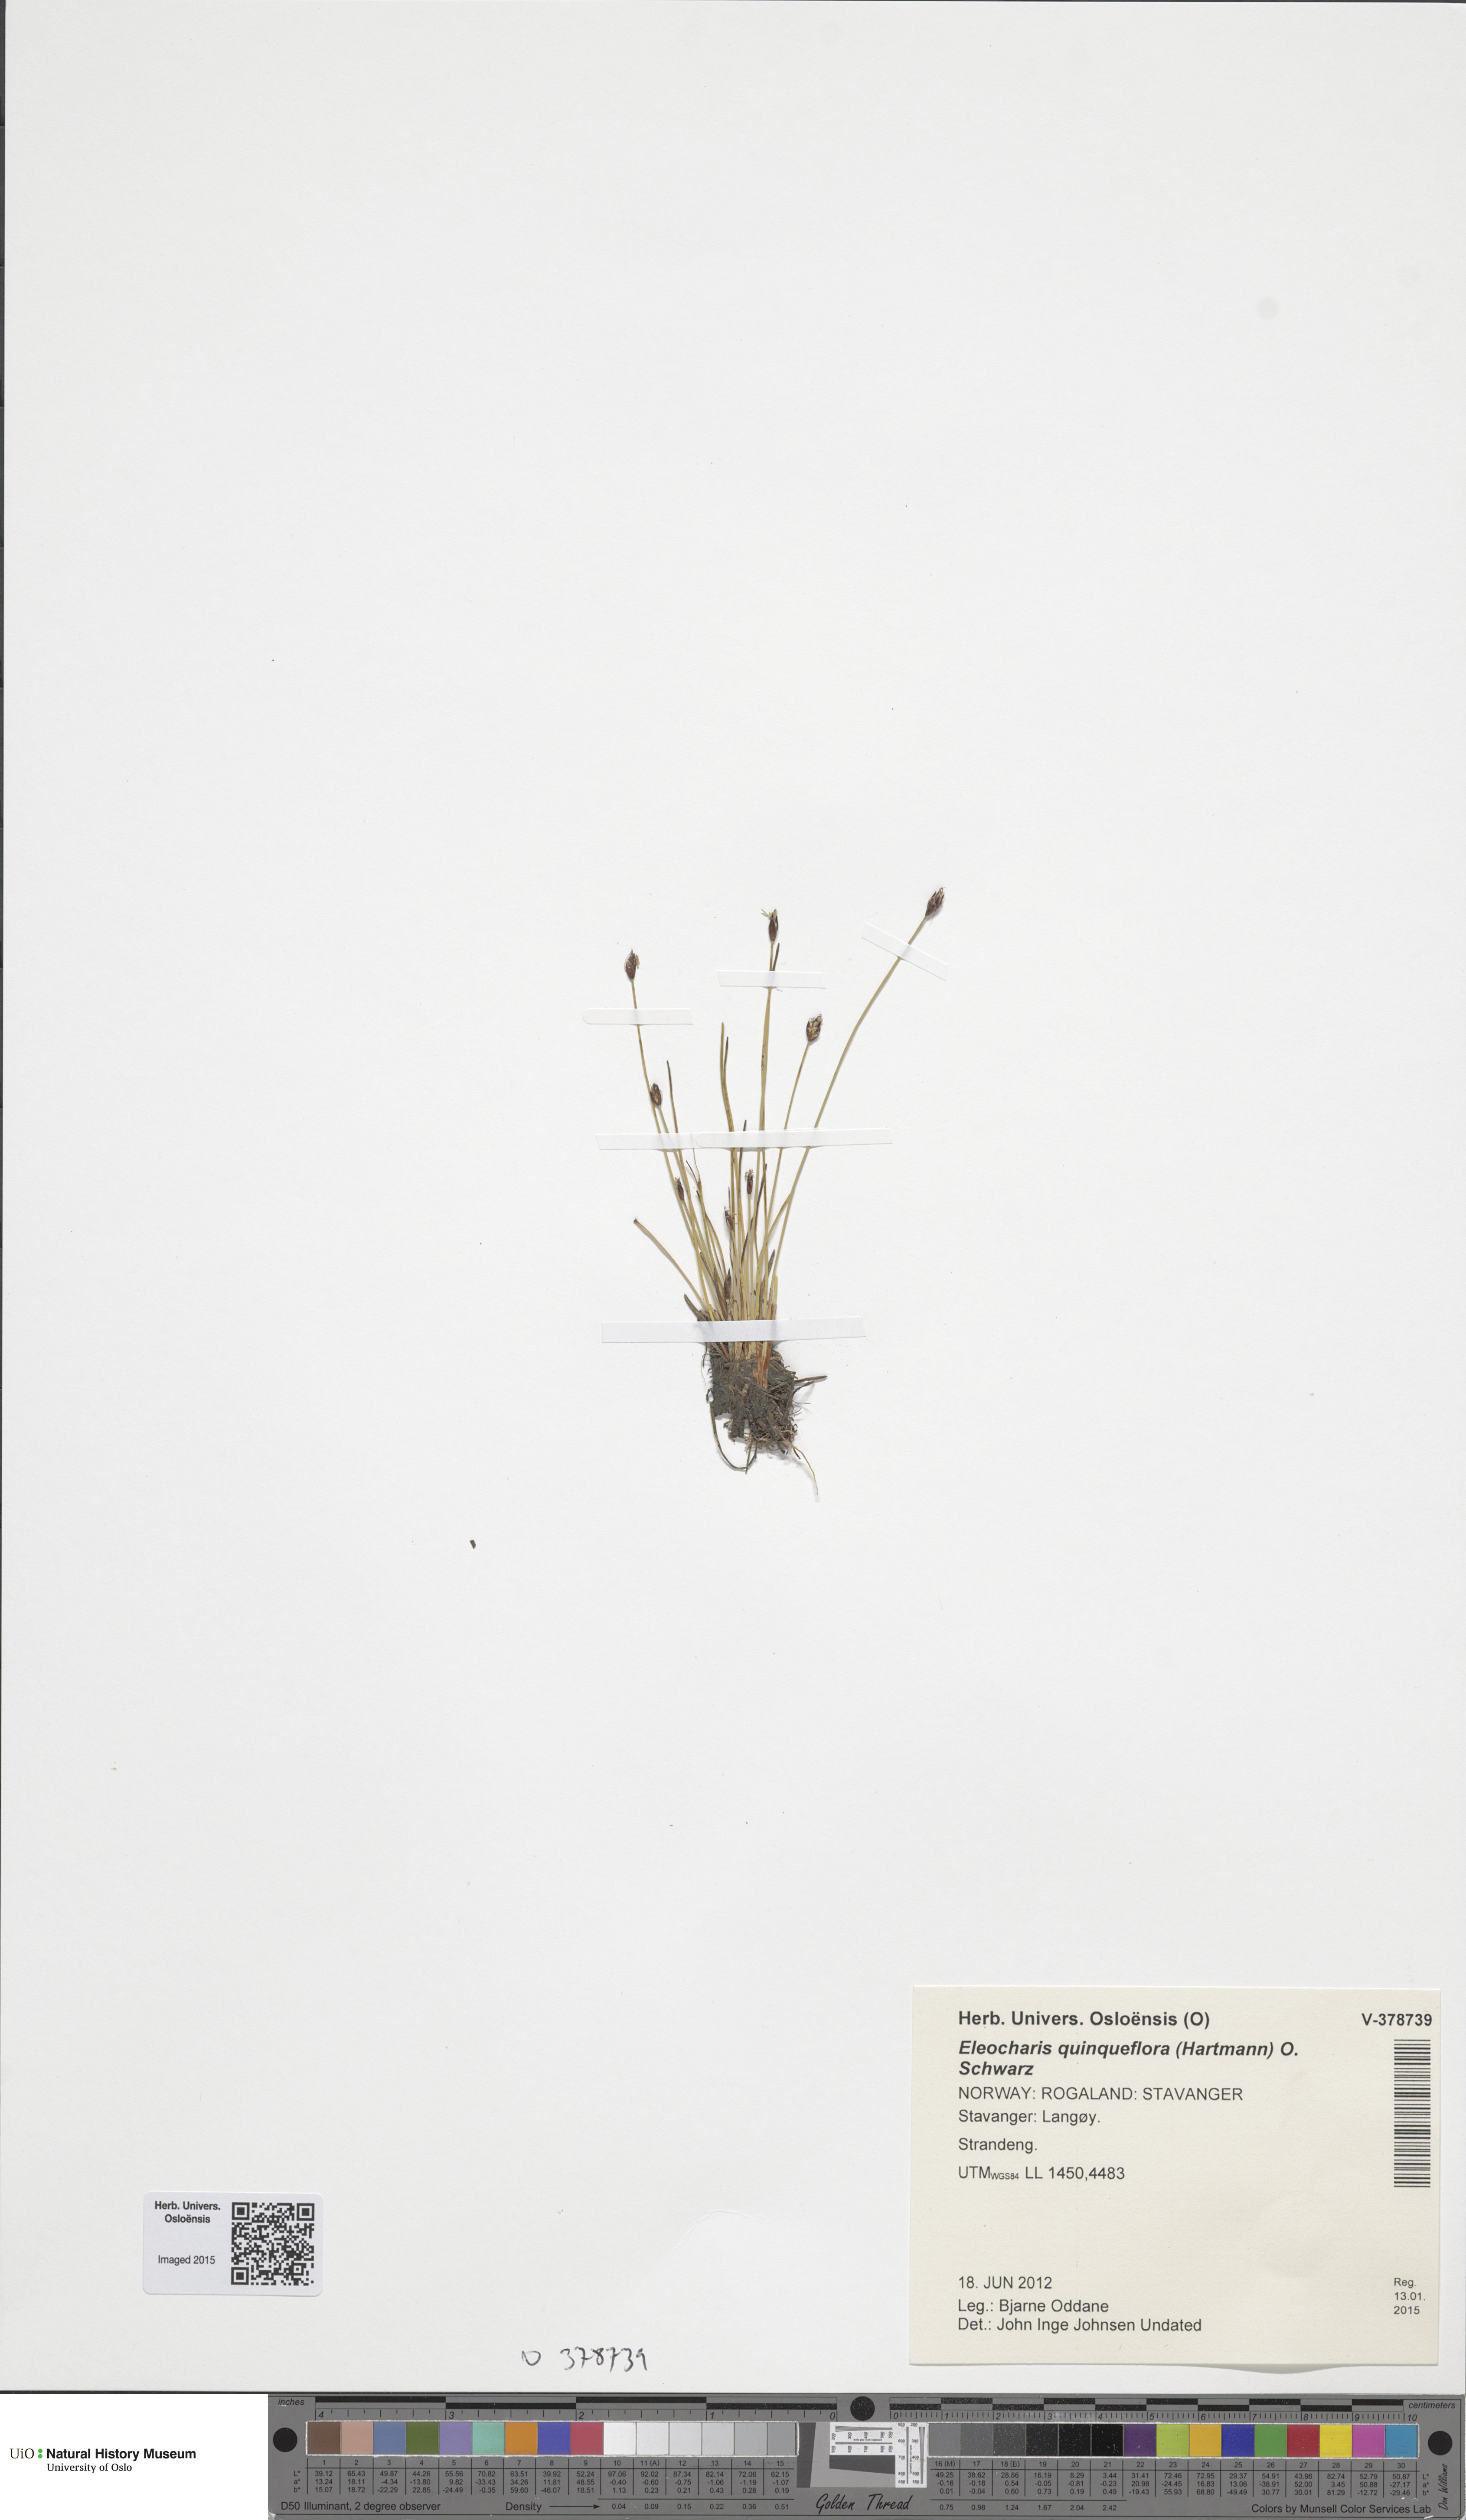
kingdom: Plantae
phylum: Tracheophyta
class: Liliopsida
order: Poales
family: Cyperaceae
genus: Eleocharis
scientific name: Eleocharis quinqueflora
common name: Few-flowered spike-rush
